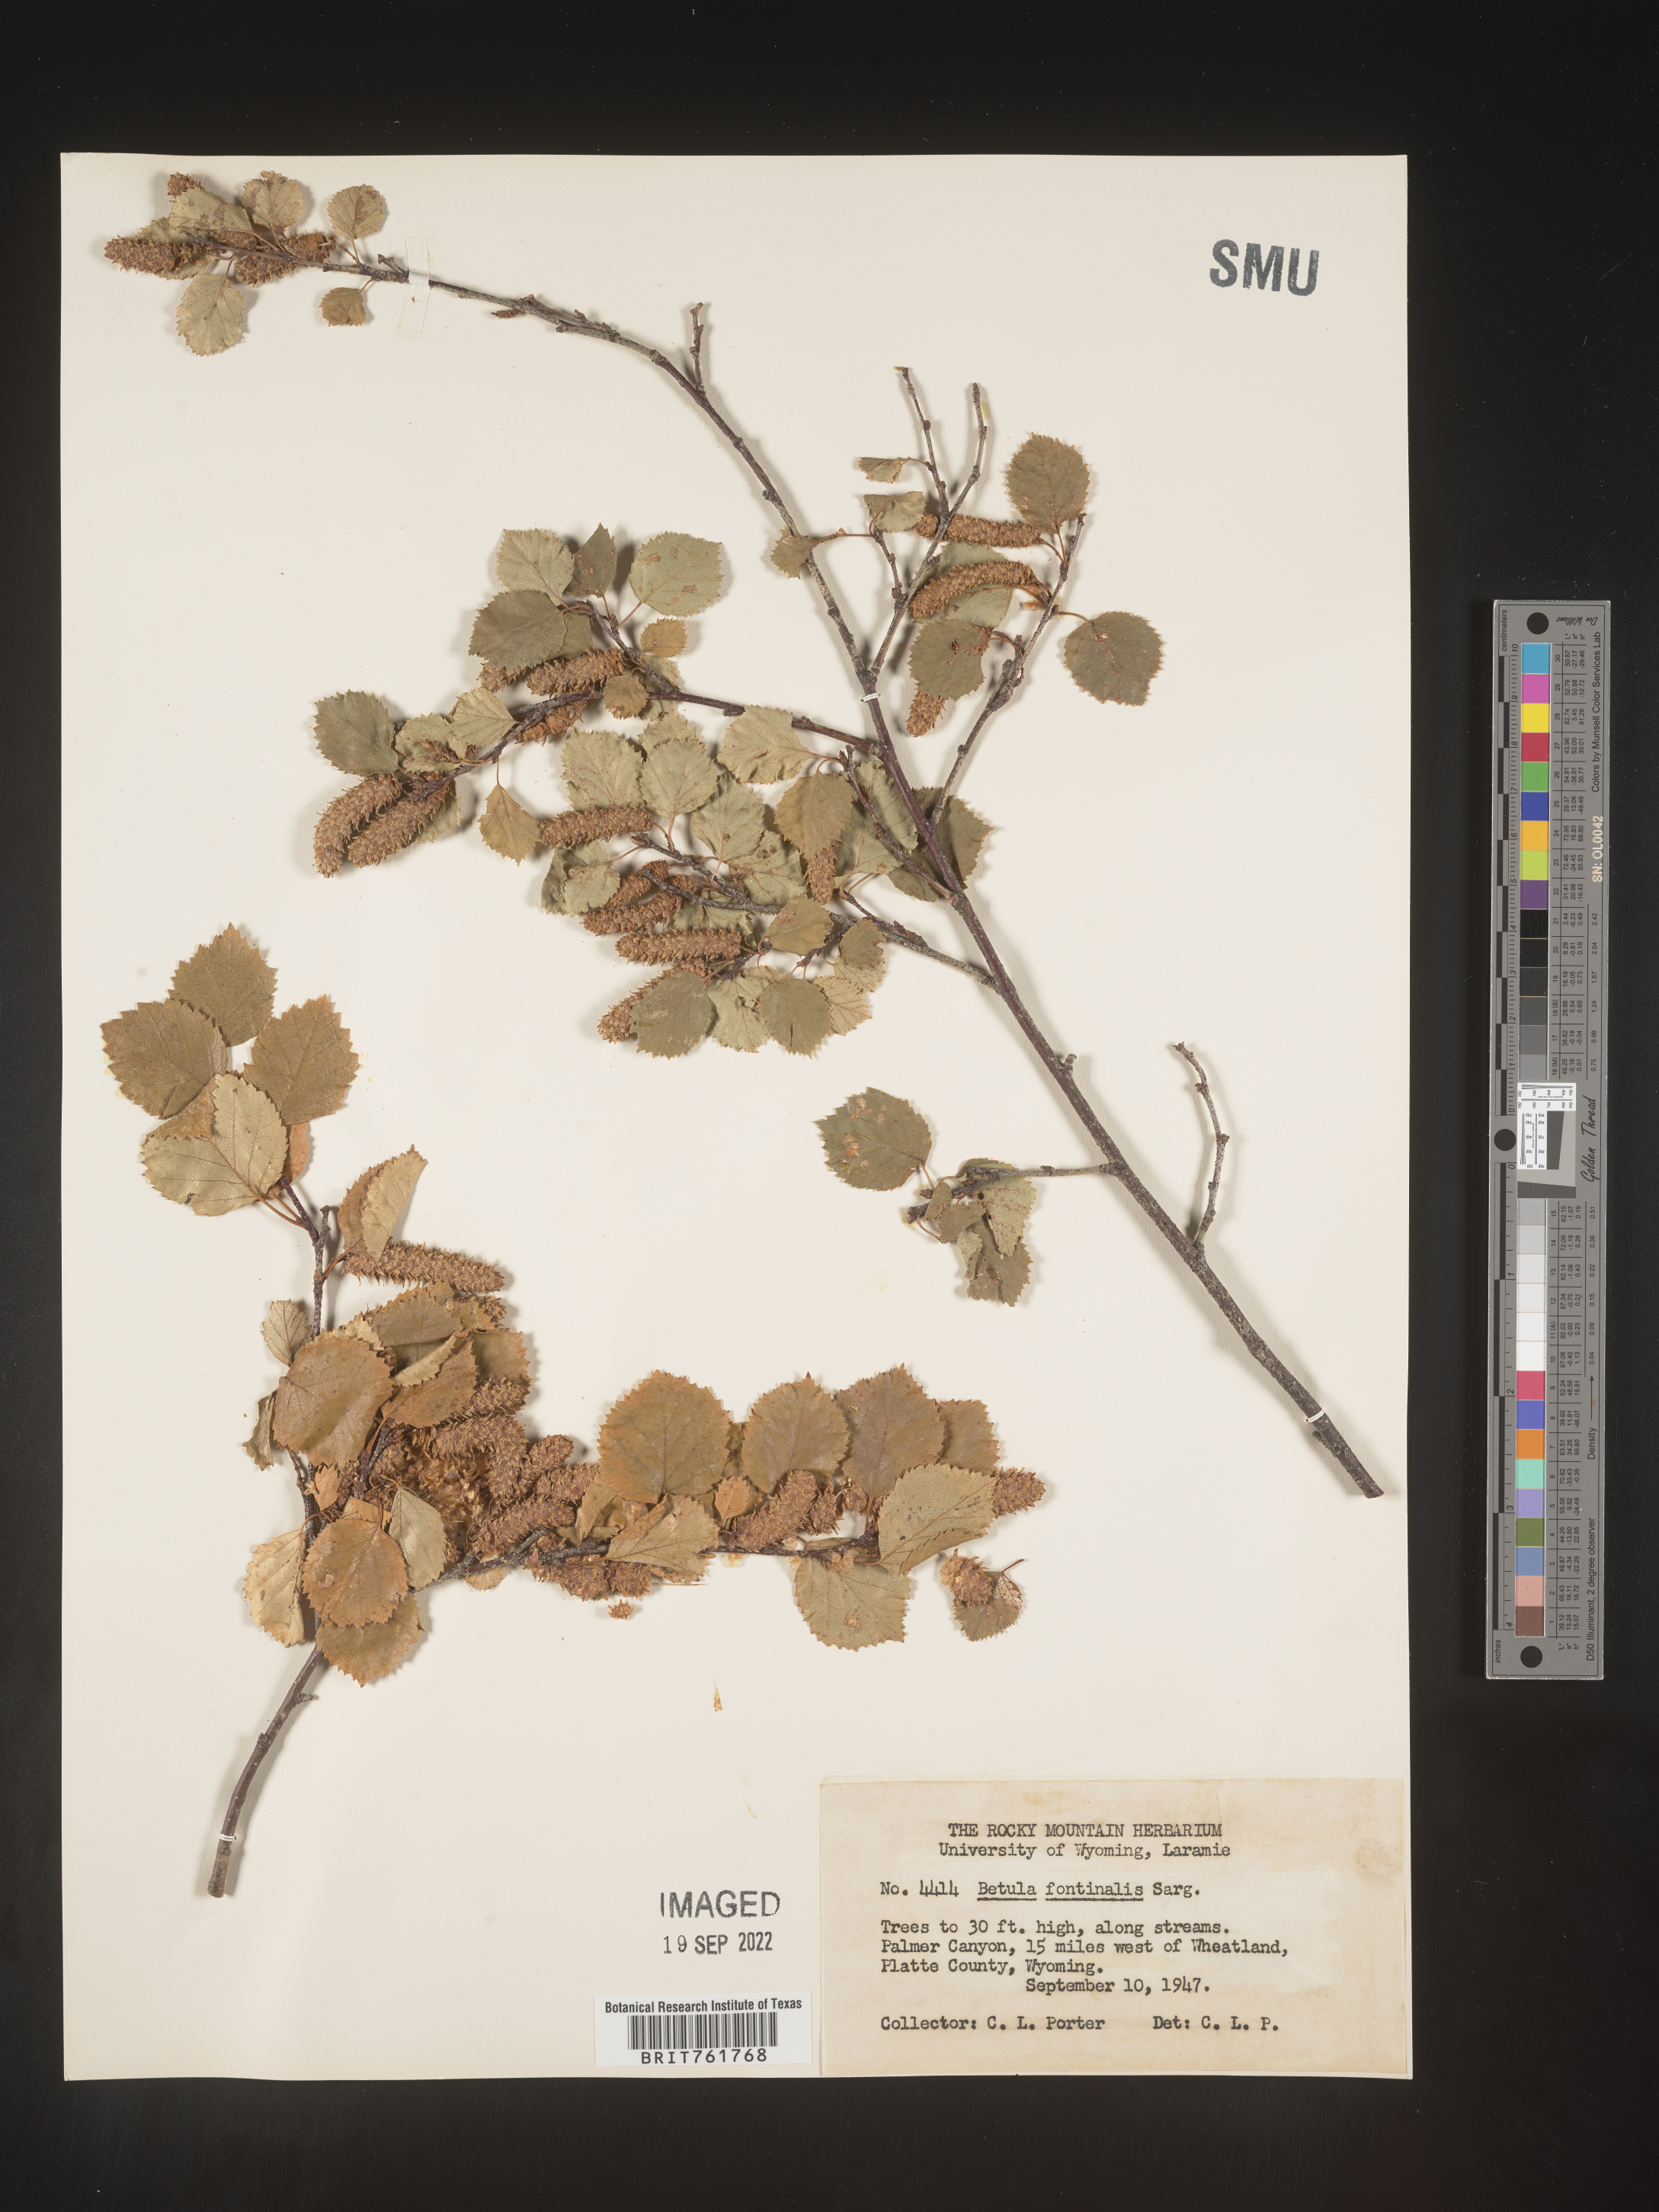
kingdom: Plantae
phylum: Tracheophyta
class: Magnoliopsida
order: Fagales
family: Betulaceae
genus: Betula
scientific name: Betula occidentalis
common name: River birch
